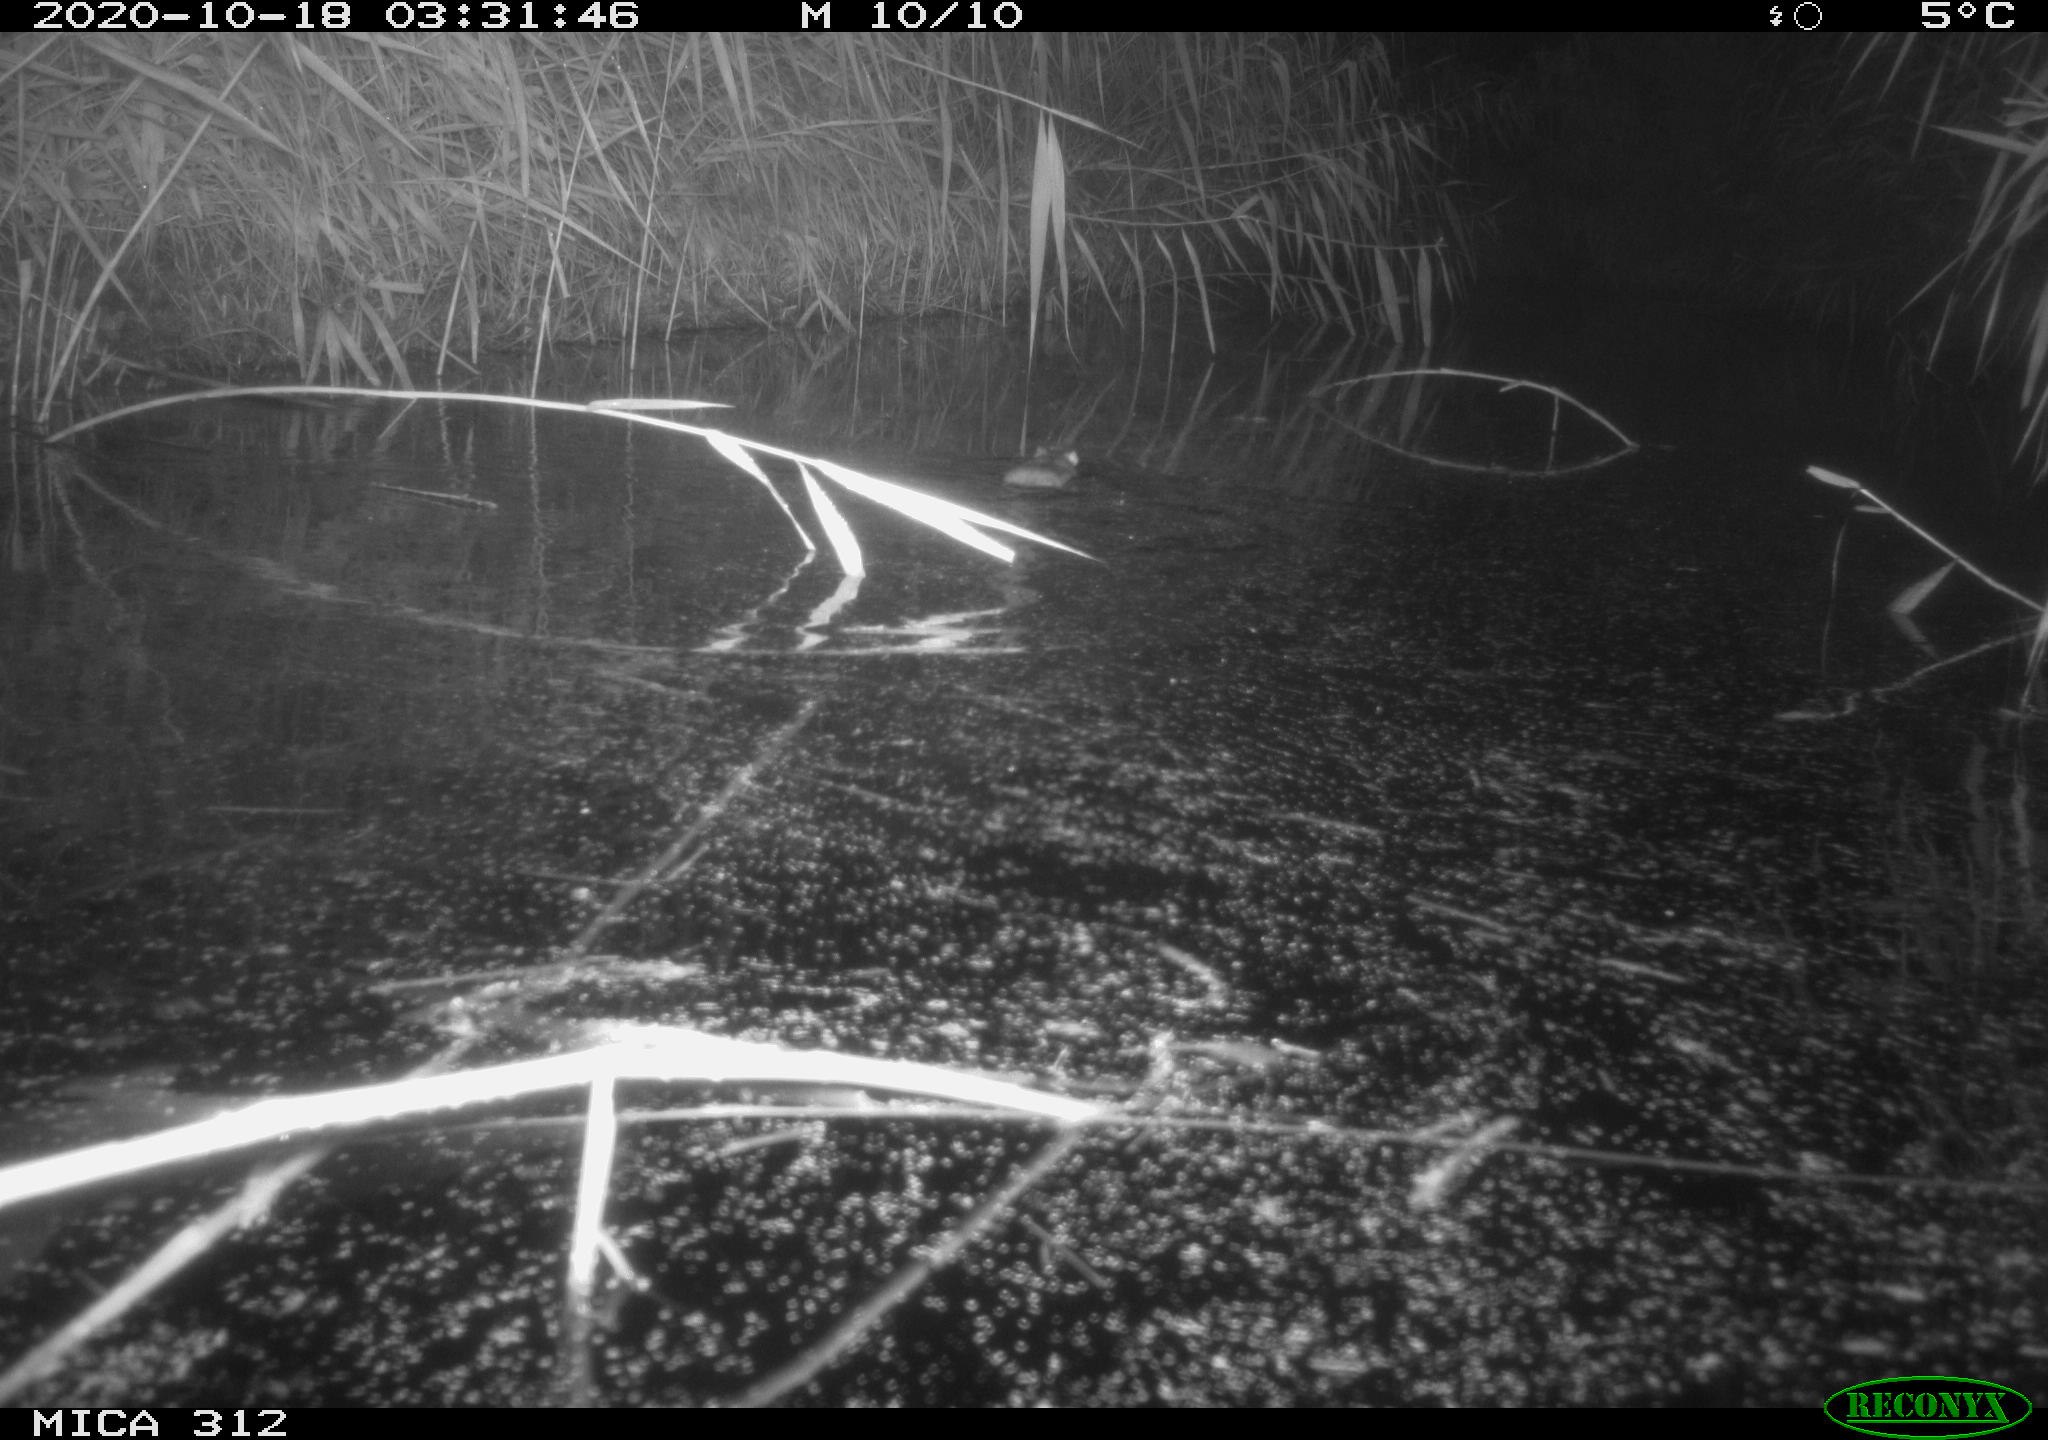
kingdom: Animalia
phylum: Chordata
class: Mammalia
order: Rodentia
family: Muridae
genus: Rattus
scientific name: Rattus norvegicus
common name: Brown rat
